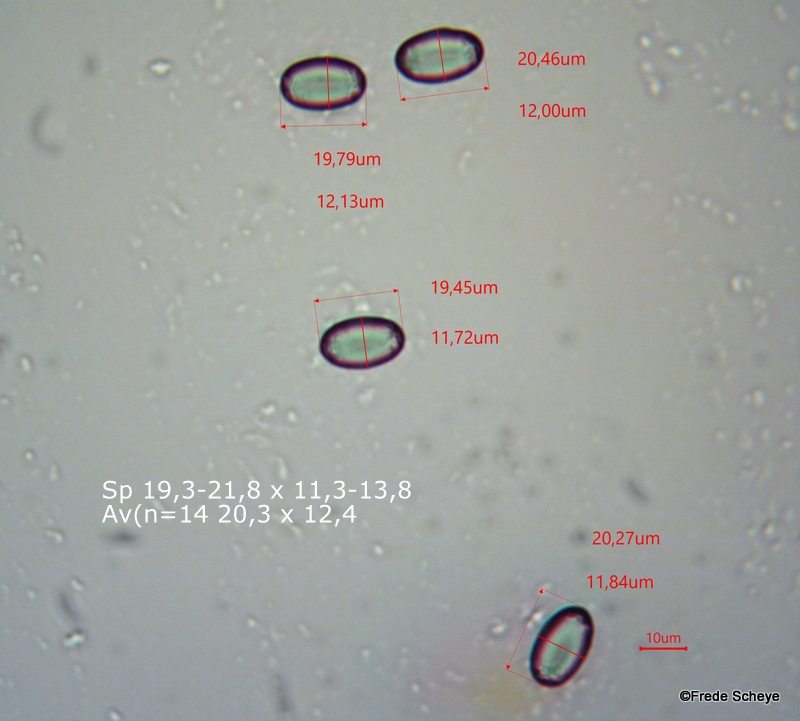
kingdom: Fungi
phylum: Ascomycota
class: Pezizomycetes
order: Pezizales
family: Helvellaceae
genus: Helvella
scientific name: Helvella bicolor
